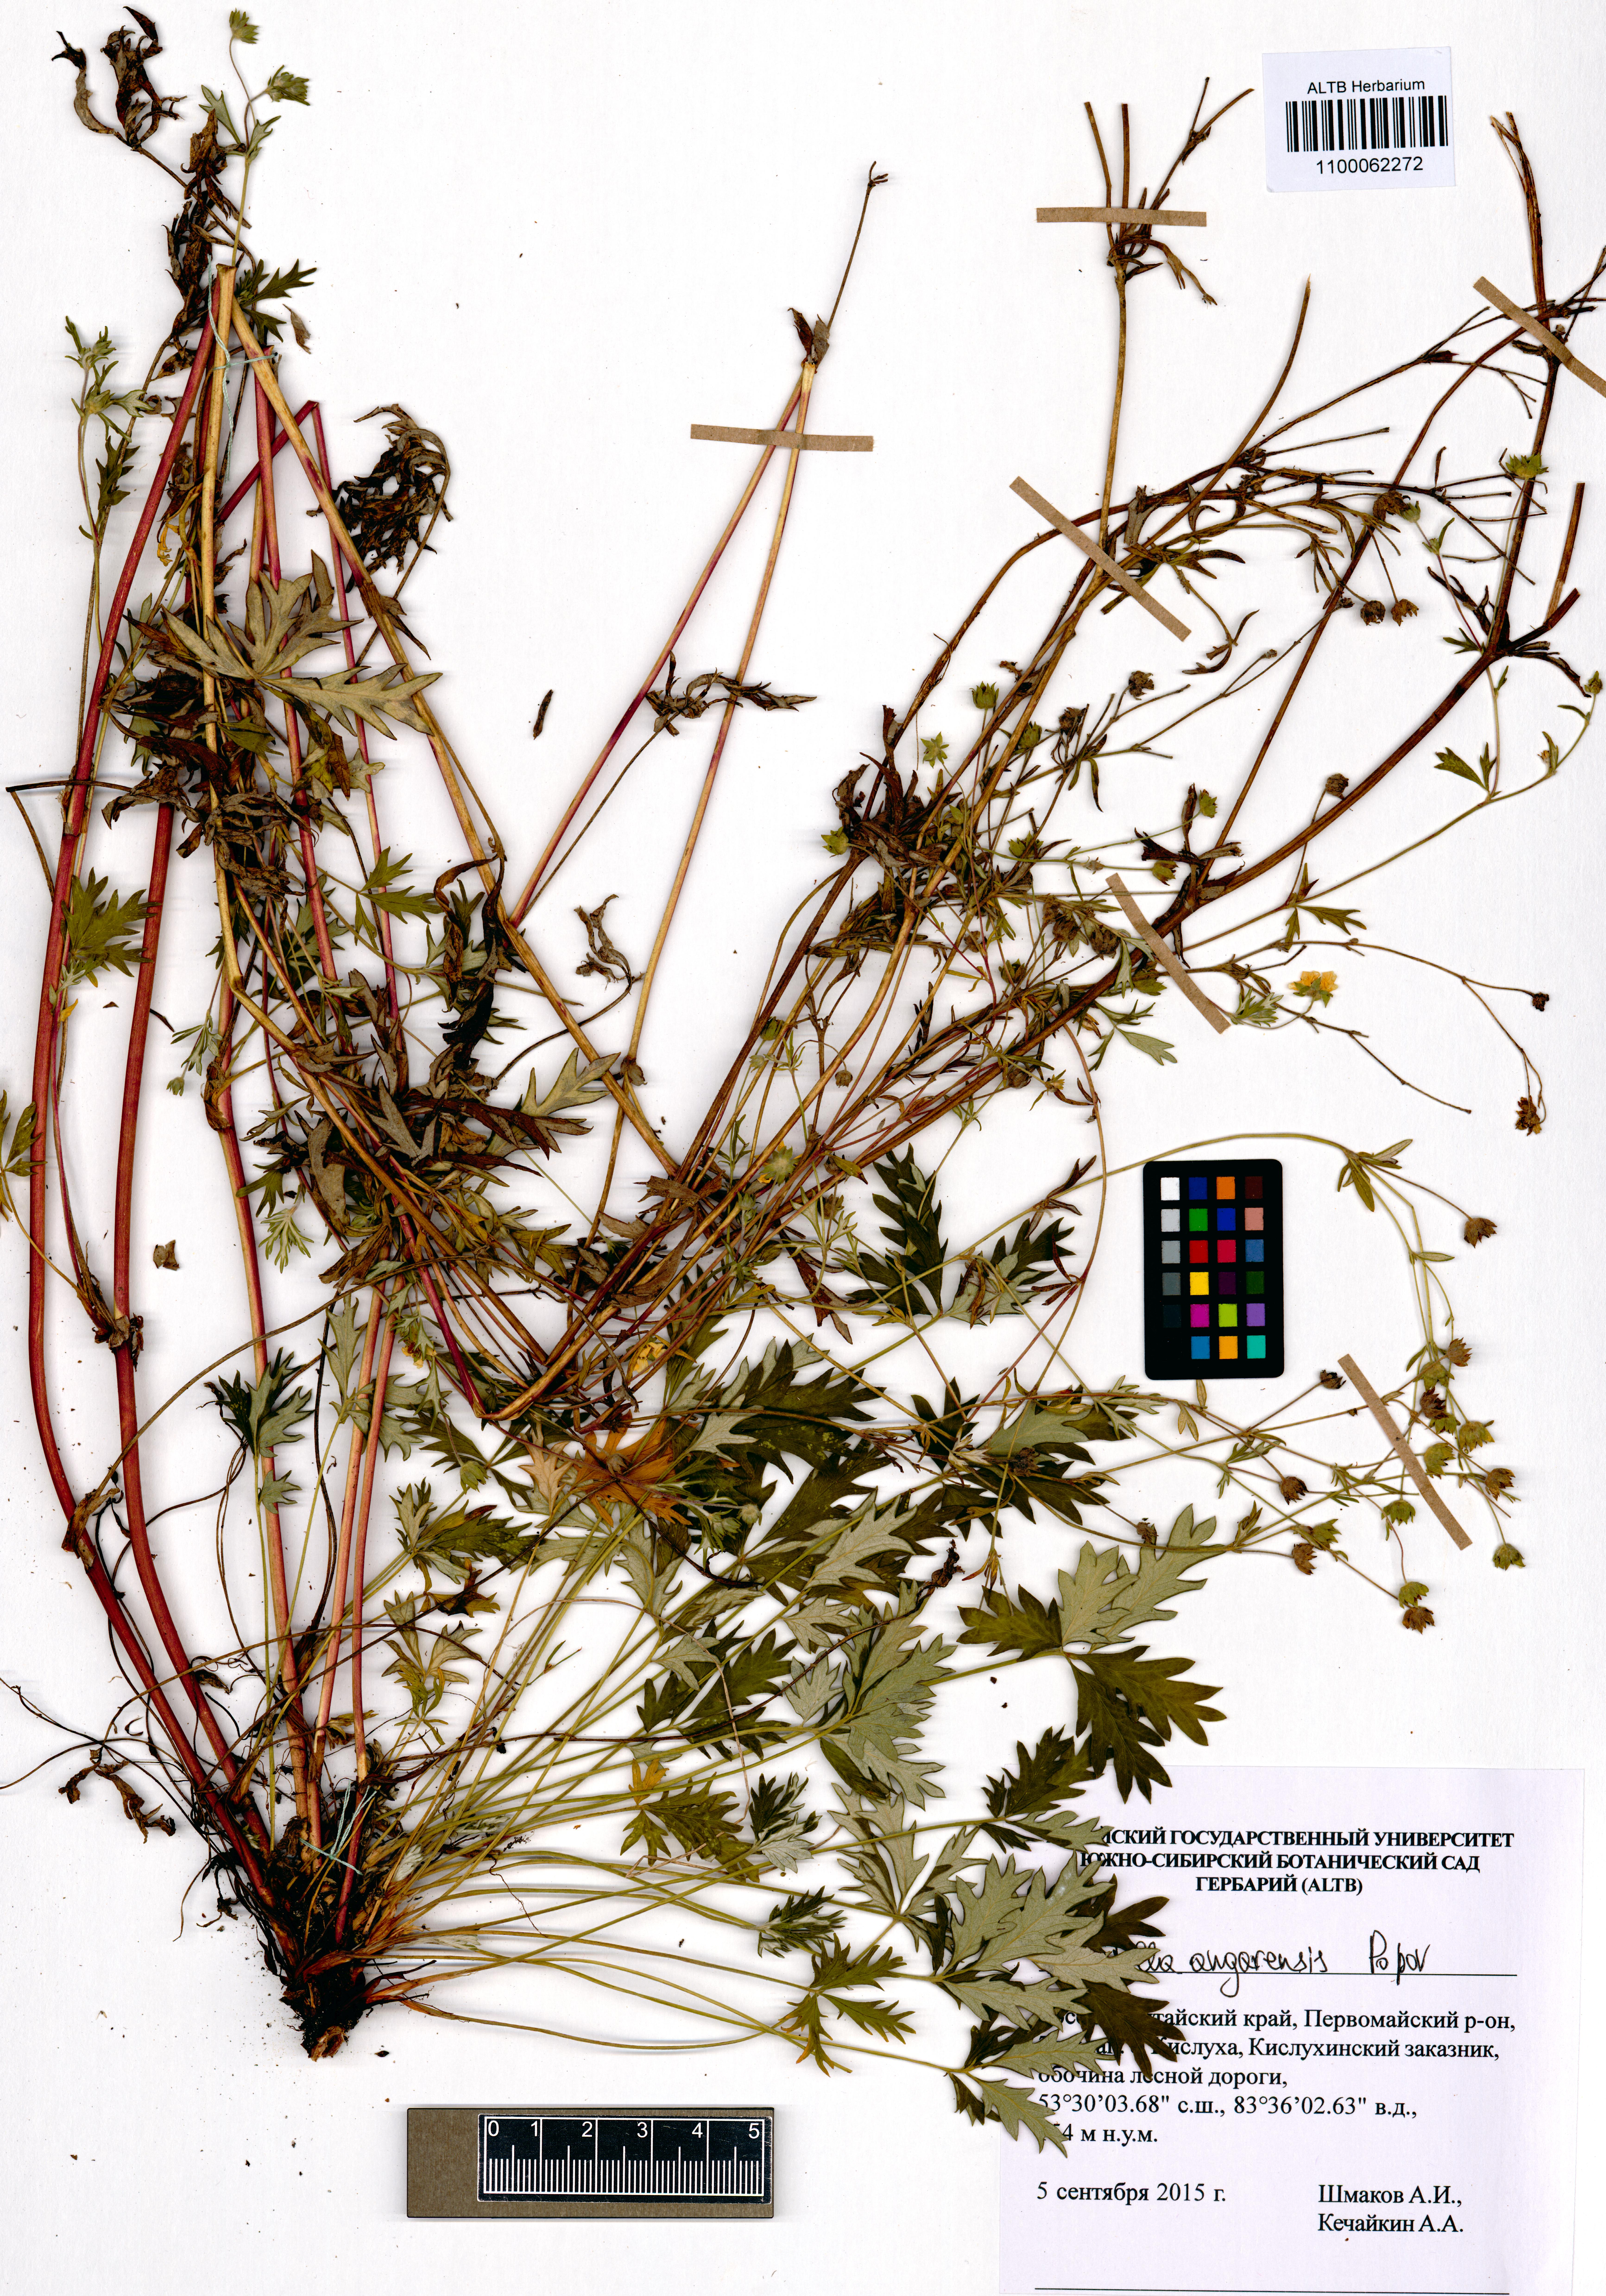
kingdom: Plantae
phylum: Tracheophyta
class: Magnoliopsida
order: Rosales
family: Rosaceae
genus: Potentilla
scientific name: Potentilla angarensis
